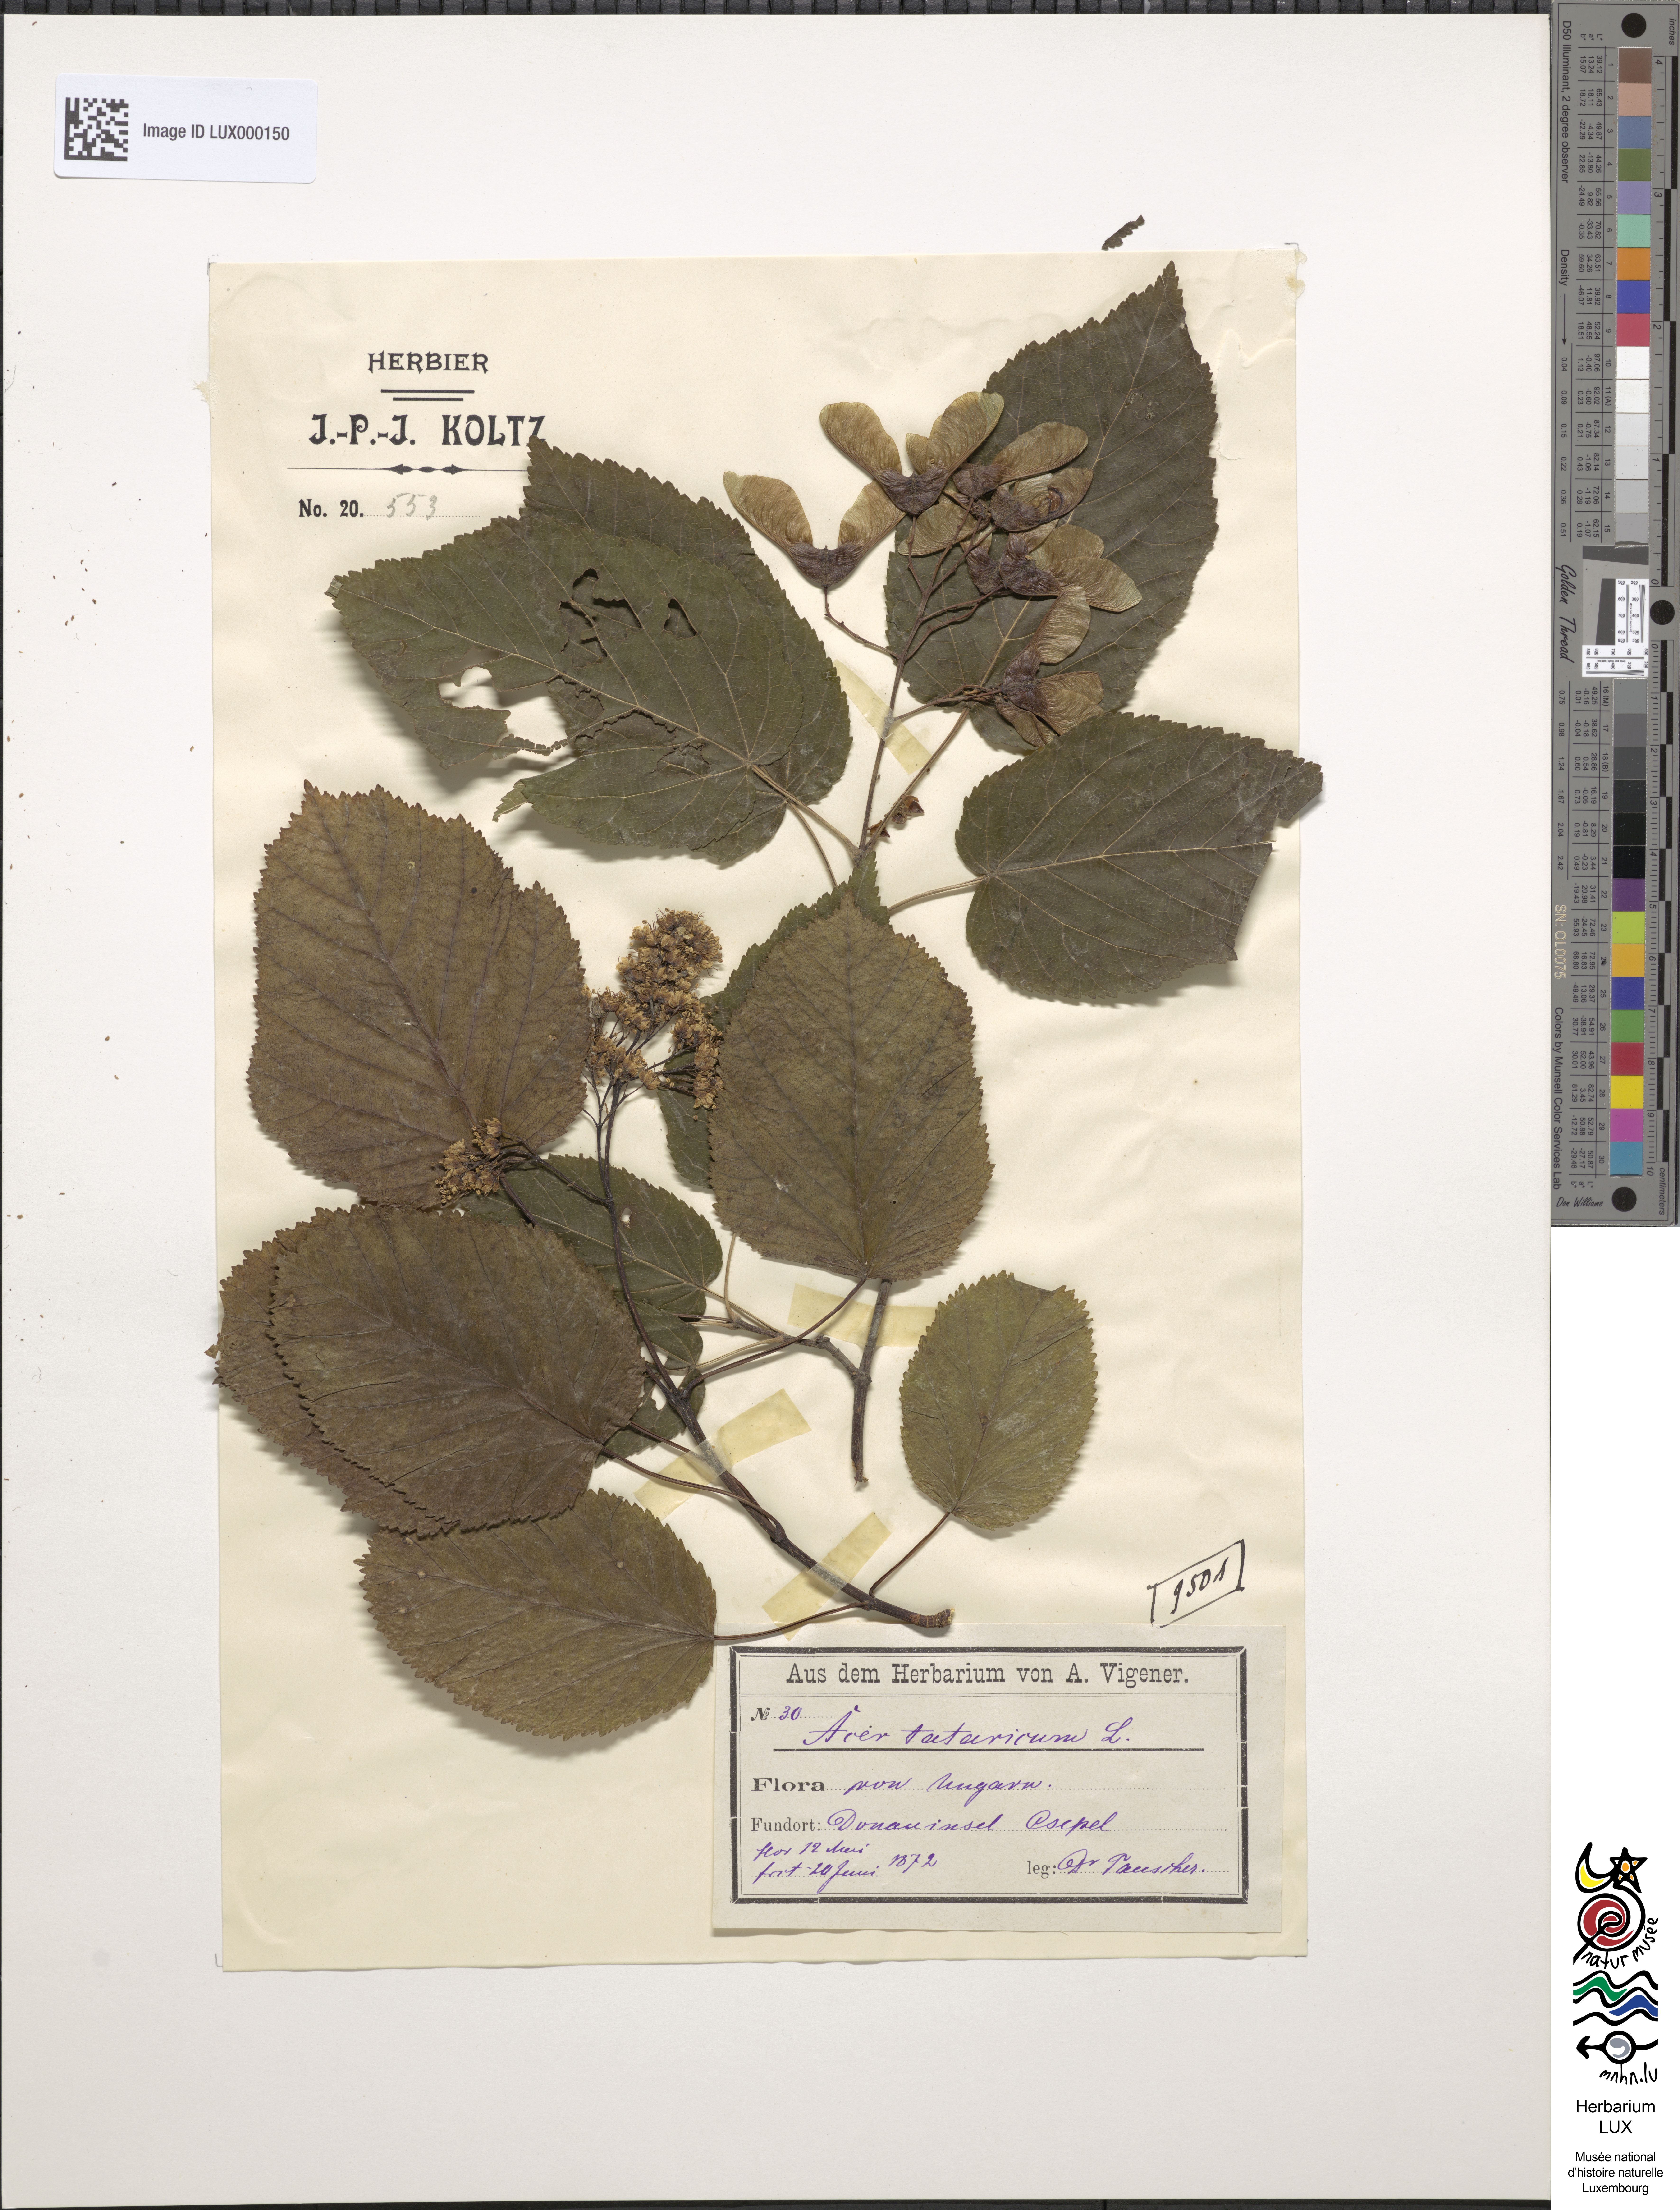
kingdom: Plantae
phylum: Tracheophyta
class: Magnoliopsida
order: Sapindales
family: Sapindaceae
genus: Acer
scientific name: Acer tataricum
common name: Tartar maple
